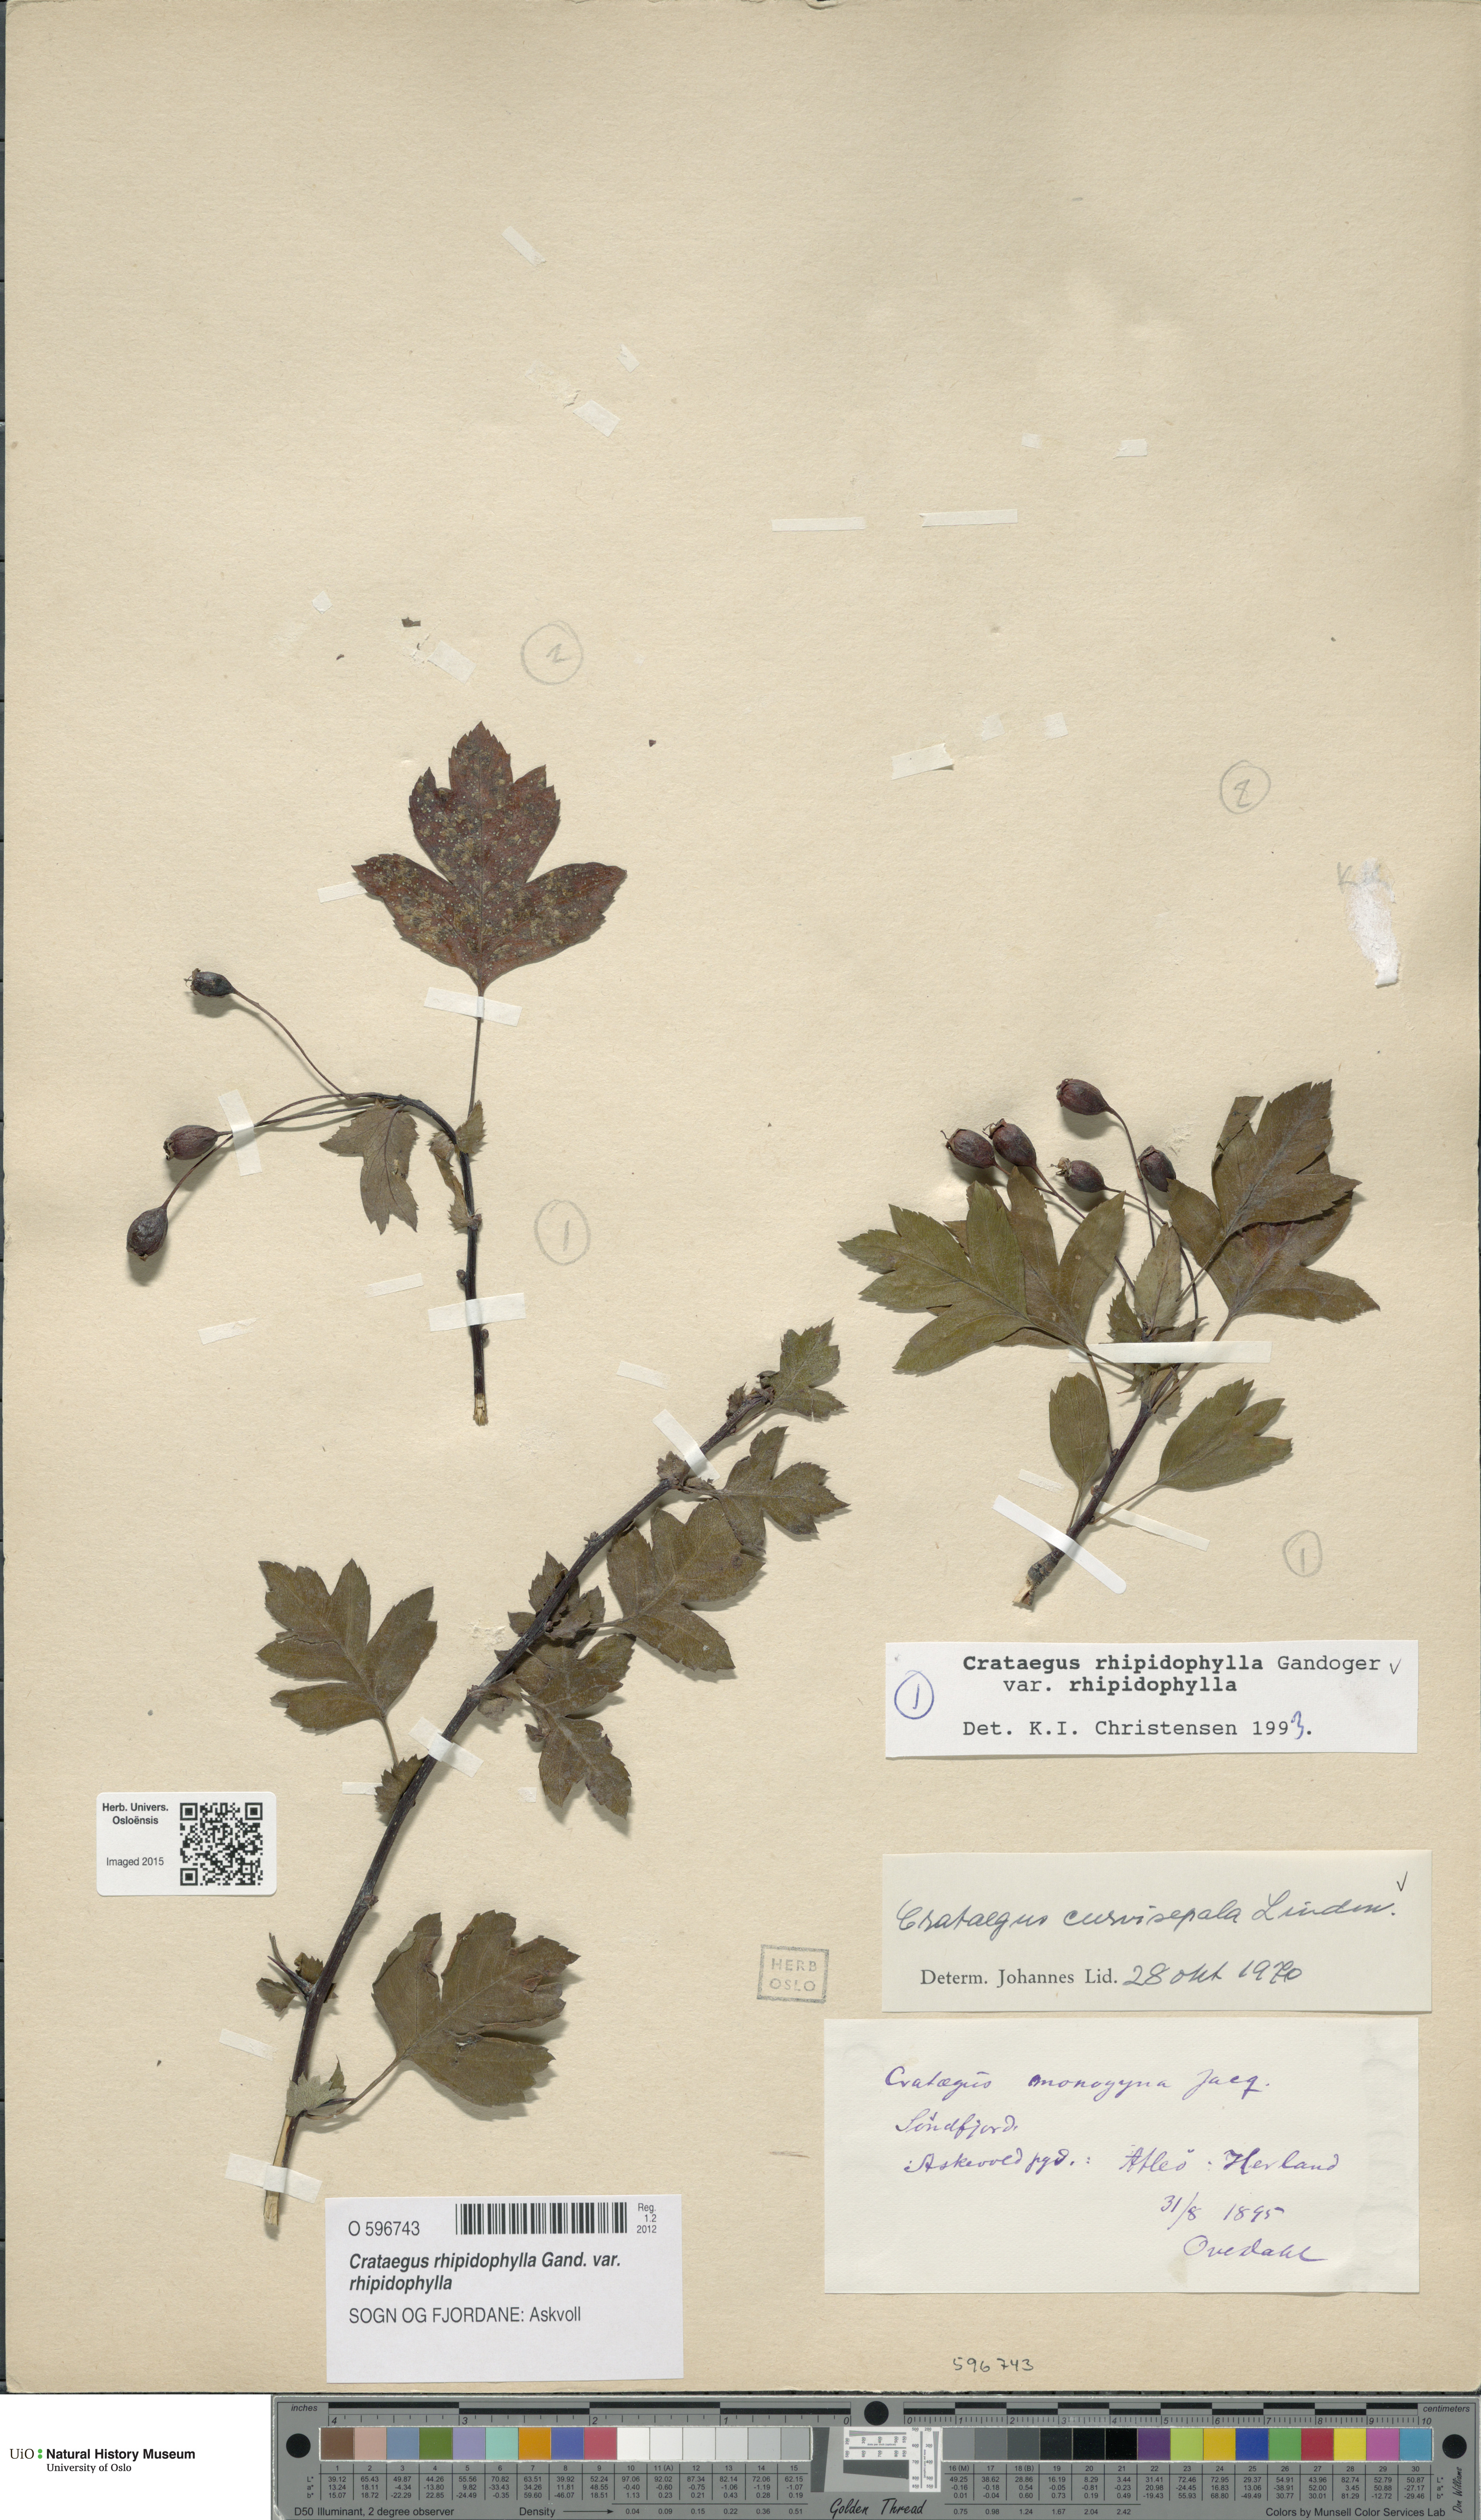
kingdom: Plantae
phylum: Tracheophyta
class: Magnoliopsida
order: Rosales
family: Rosaceae
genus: Crataegus
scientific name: Crataegus rhipidophylla
